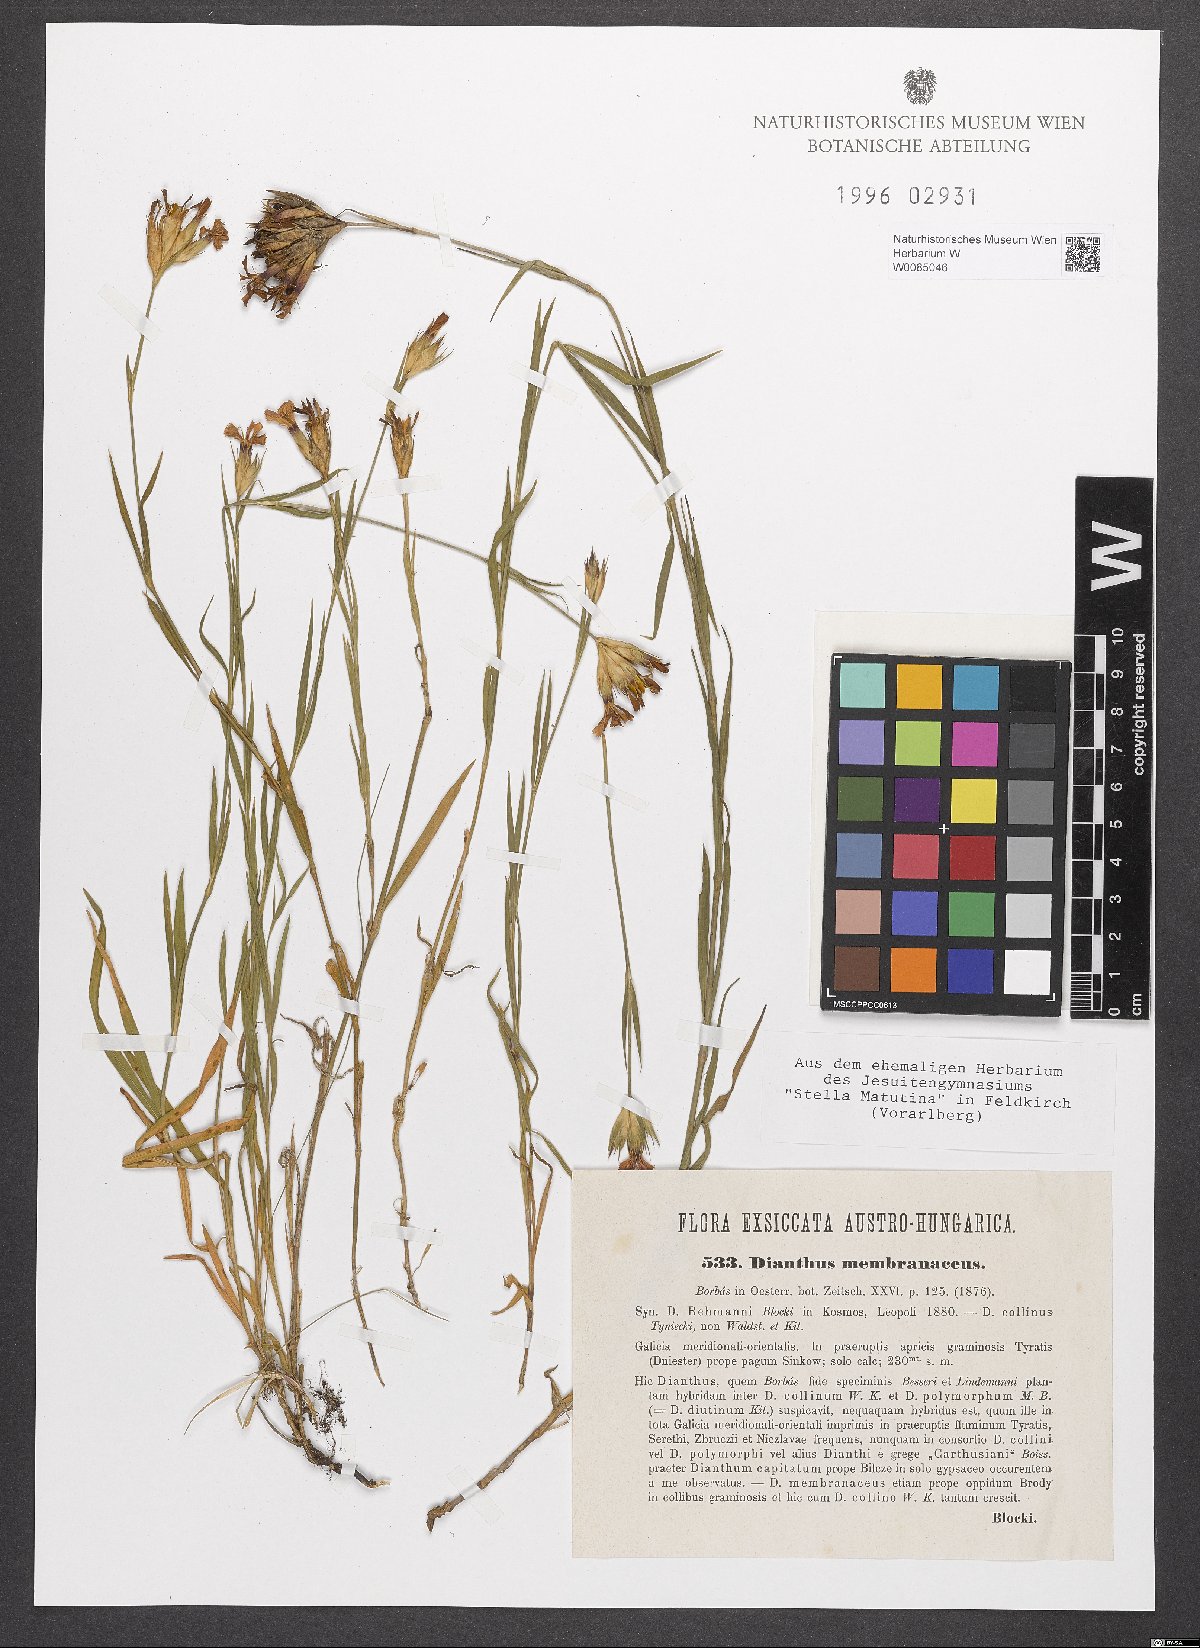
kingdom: Plantae
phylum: Tracheophyta
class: Magnoliopsida
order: Caryophyllales
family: Caryophyllaceae
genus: Dianthus
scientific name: Dianthus membranaceus
